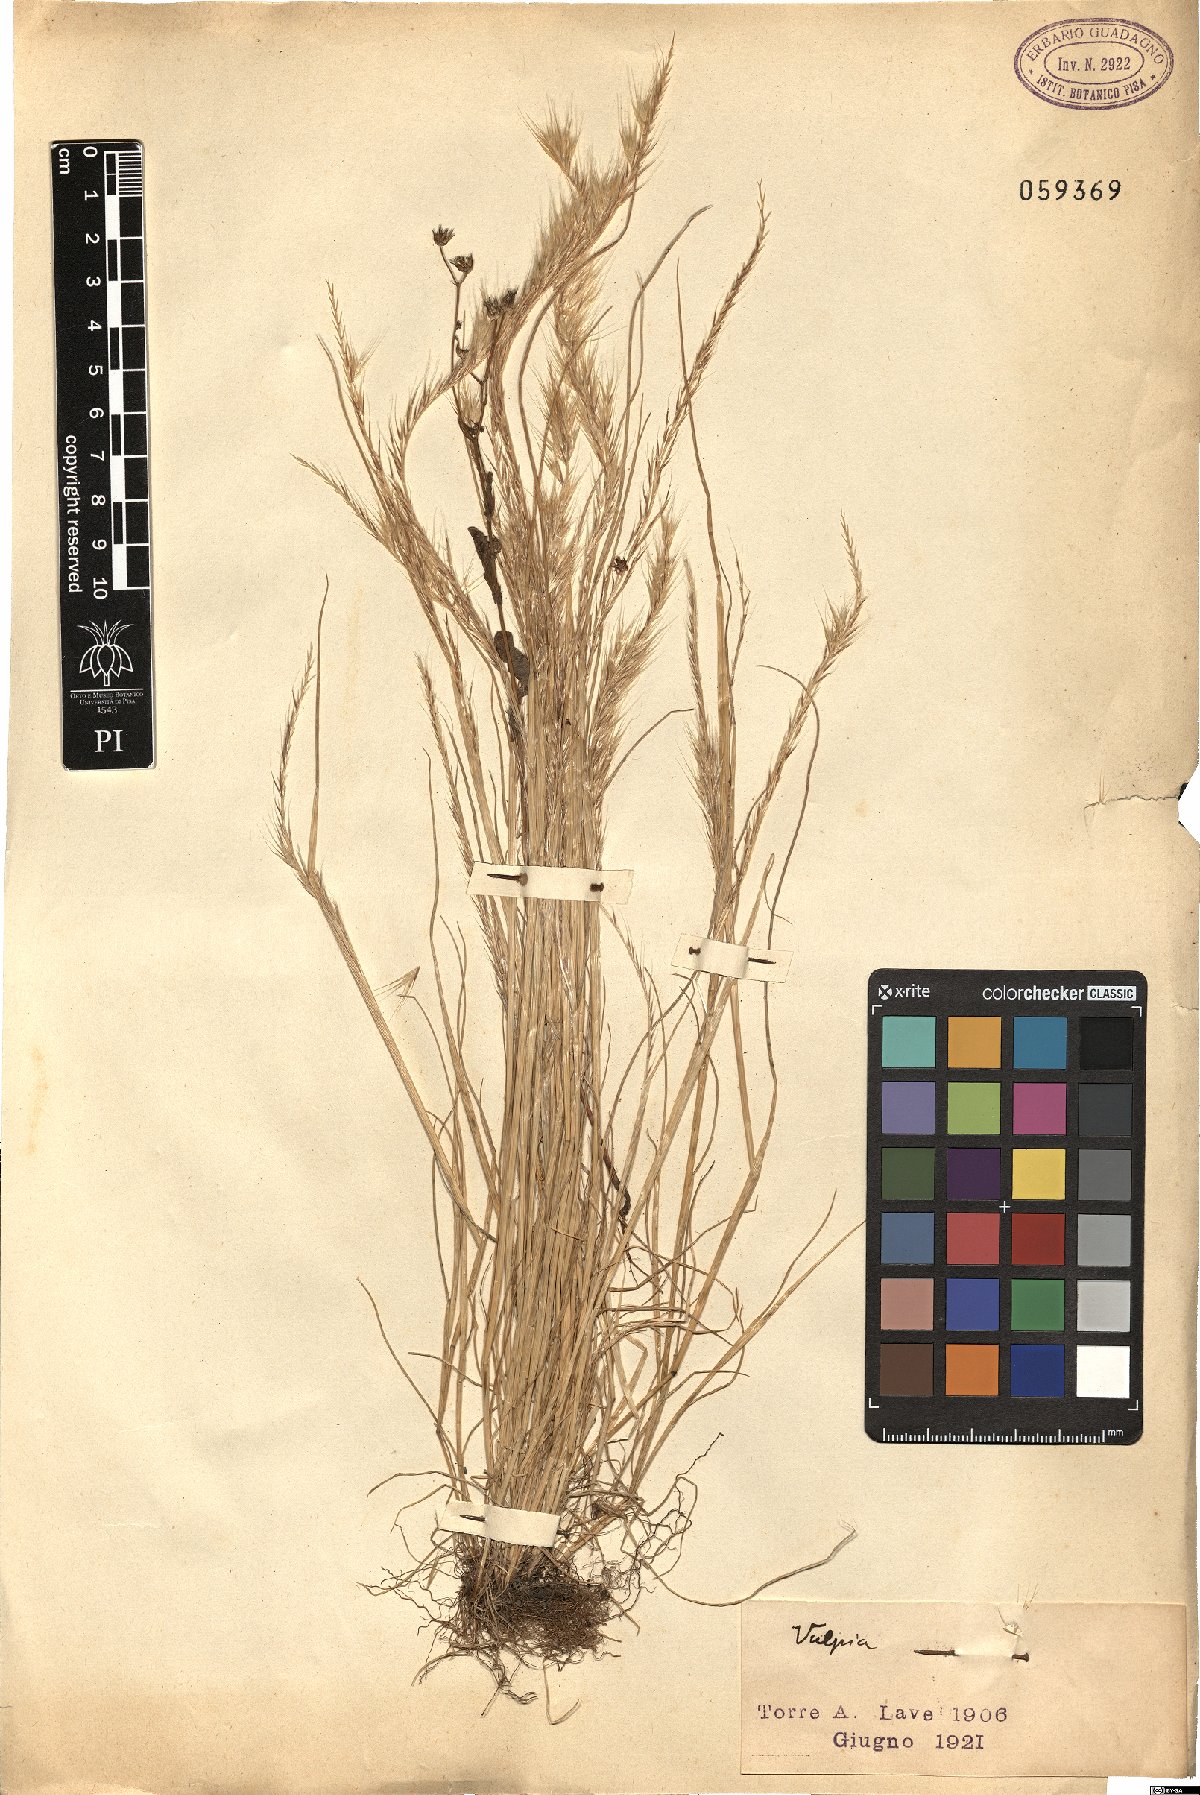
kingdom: Plantae
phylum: Tracheophyta
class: Liliopsida
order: Poales
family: Poaceae
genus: Festuca
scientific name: Festuca
